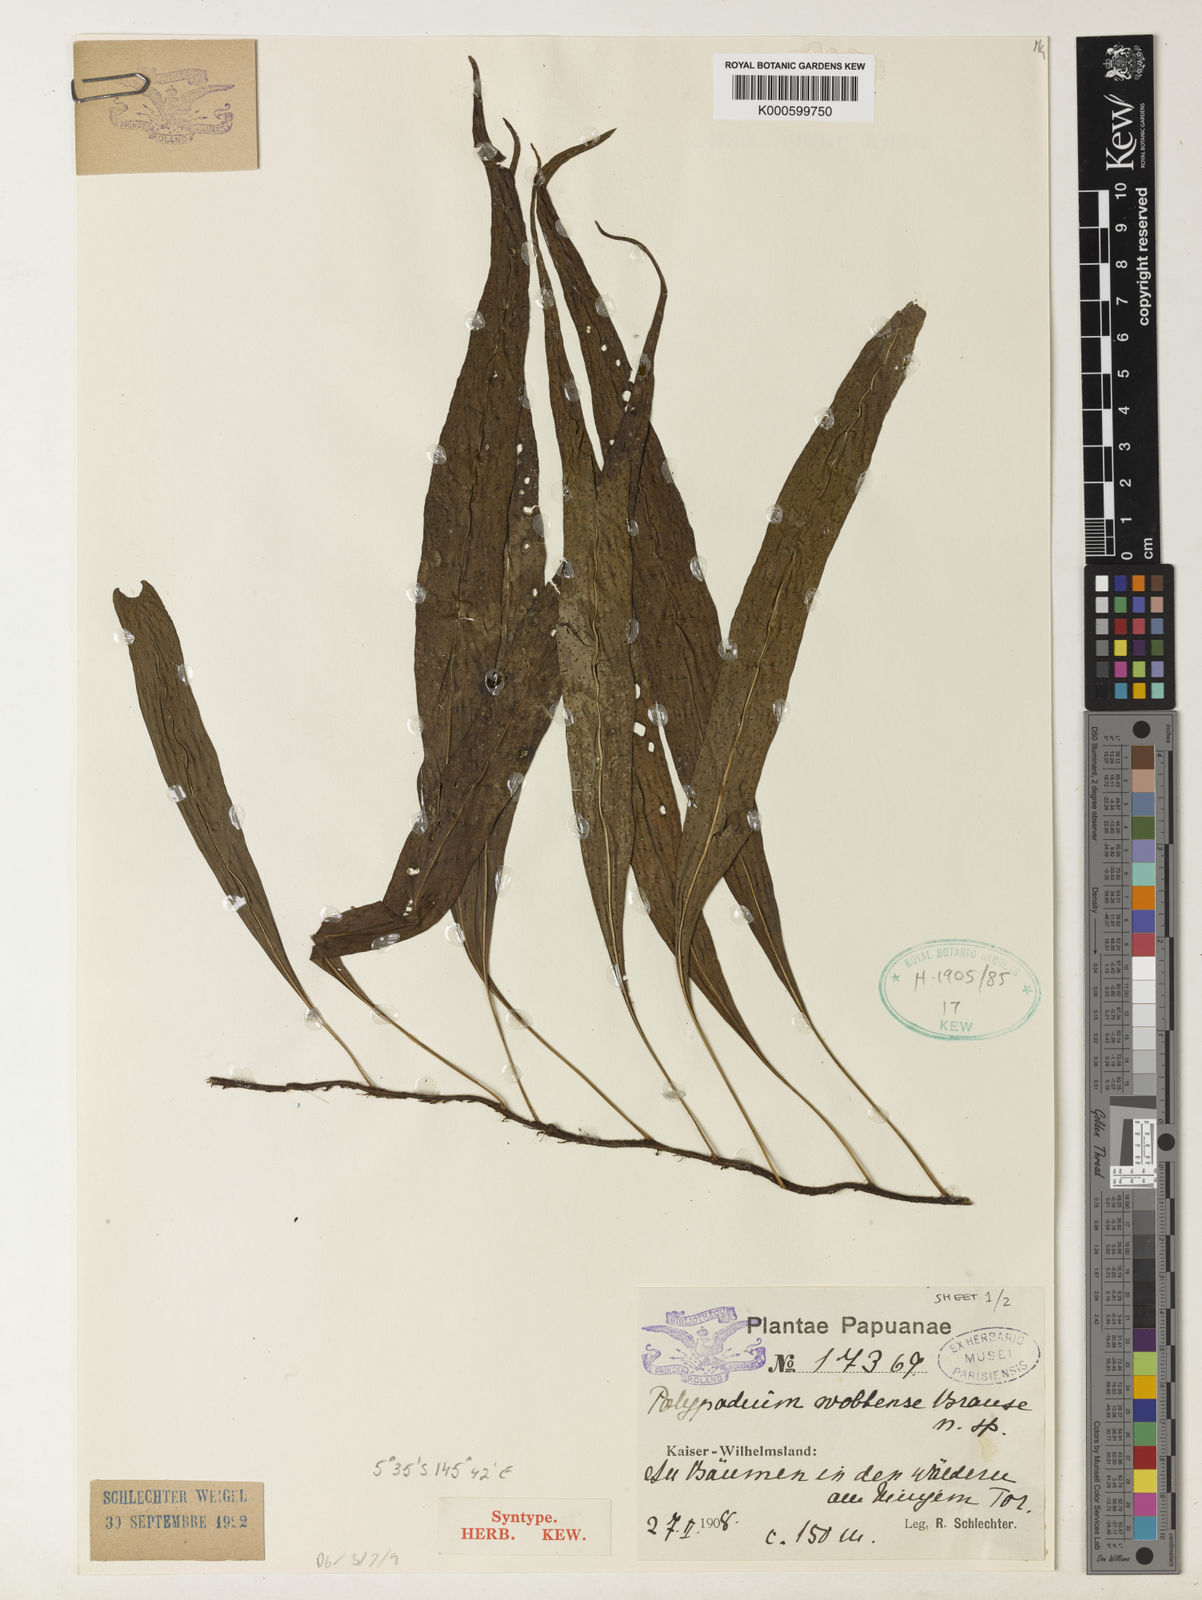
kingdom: Plantae
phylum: Tracheophyta
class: Polypodiopsida
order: Polypodiales
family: Polypodiaceae
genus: Microsorum
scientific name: Microsorum rampans
